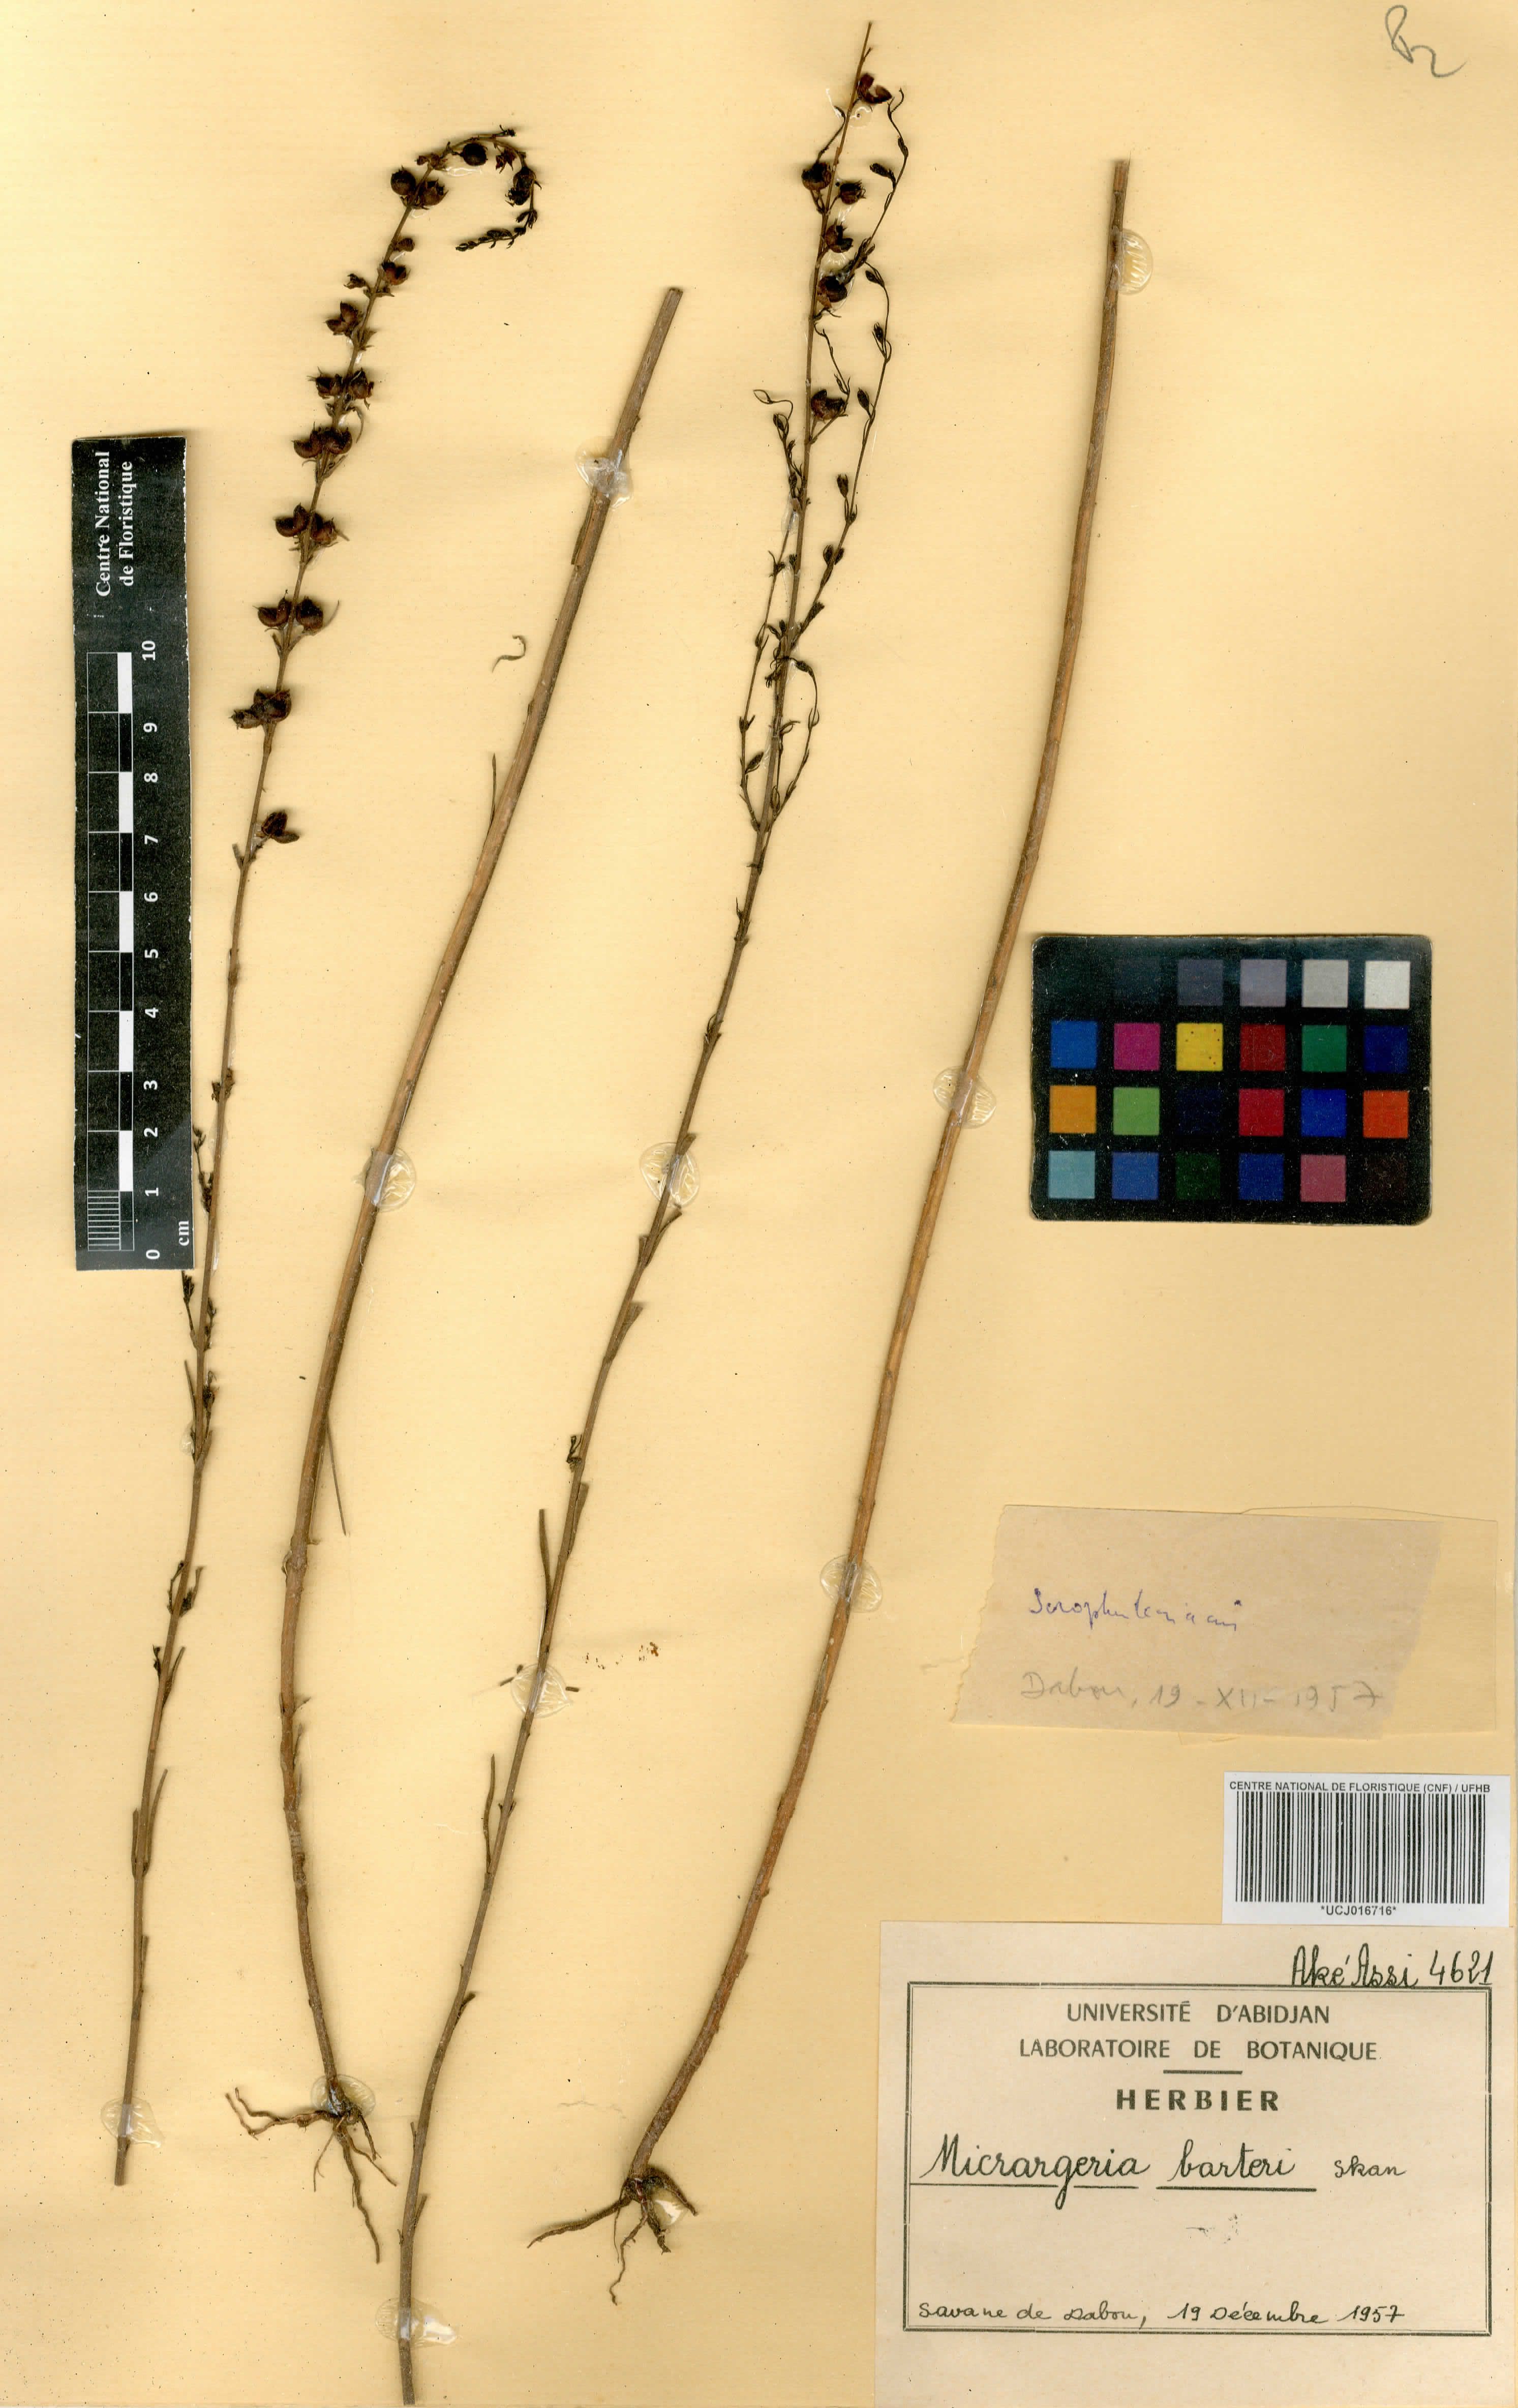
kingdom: Plantae
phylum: Tracheophyta
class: Magnoliopsida
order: Lamiales
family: Orobanchaceae
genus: Micrargeria
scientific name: Micrargeria filiformis
